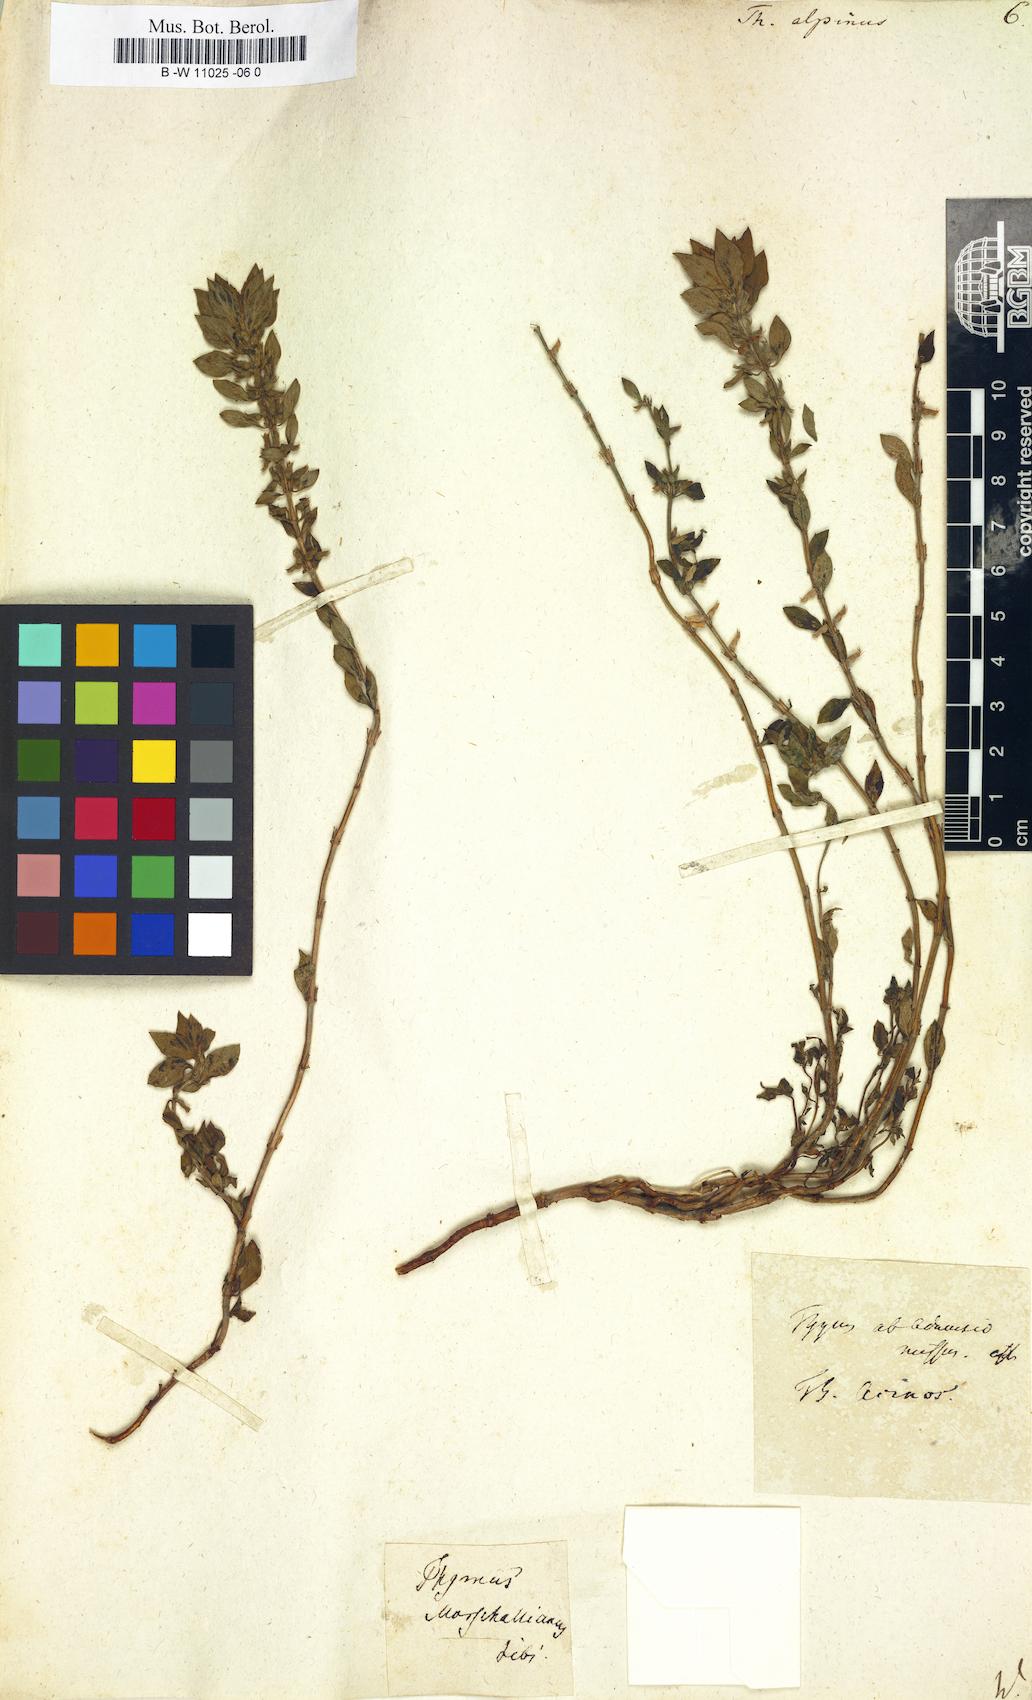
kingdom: Plantae
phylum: Tracheophyta
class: Magnoliopsida
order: Lamiales
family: Lamiaceae
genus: Thymus
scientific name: Thymus alpinus
